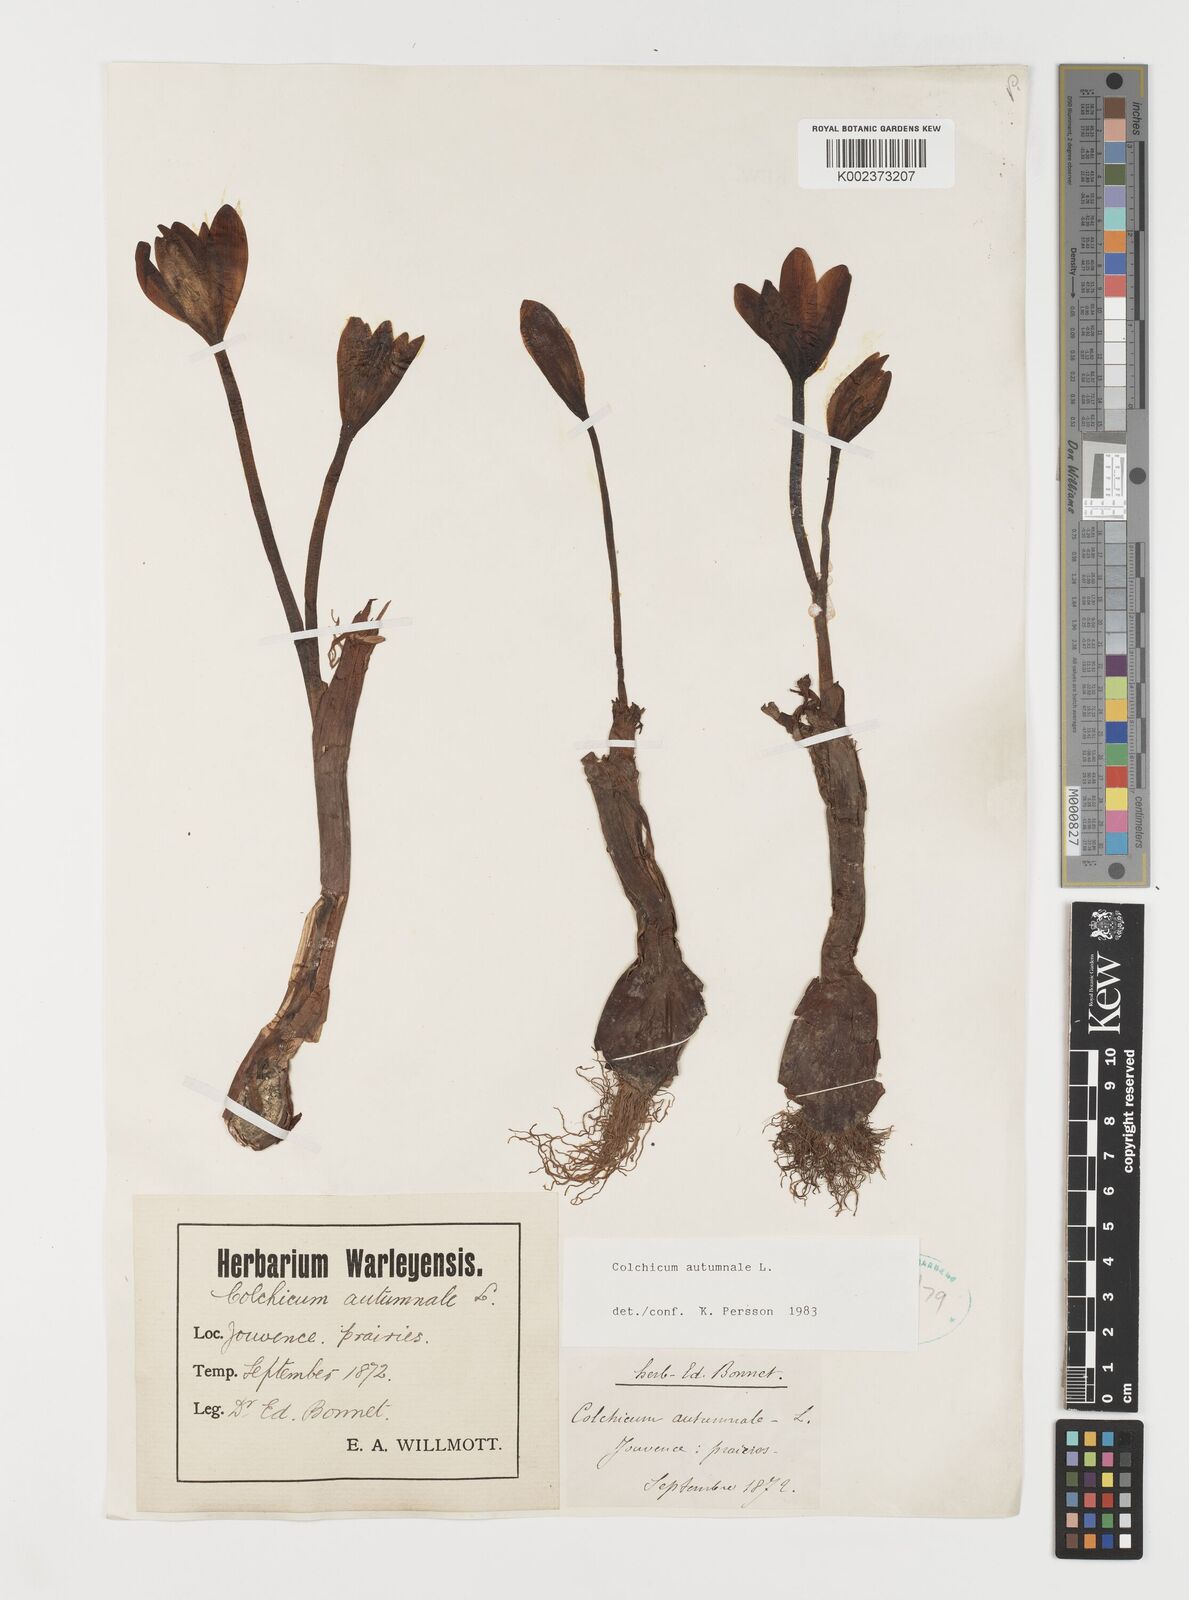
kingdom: Plantae
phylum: Tracheophyta
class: Liliopsida
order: Liliales
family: Colchicaceae
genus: Colchicum
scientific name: Colchicum autumnale
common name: Autumn crocus
